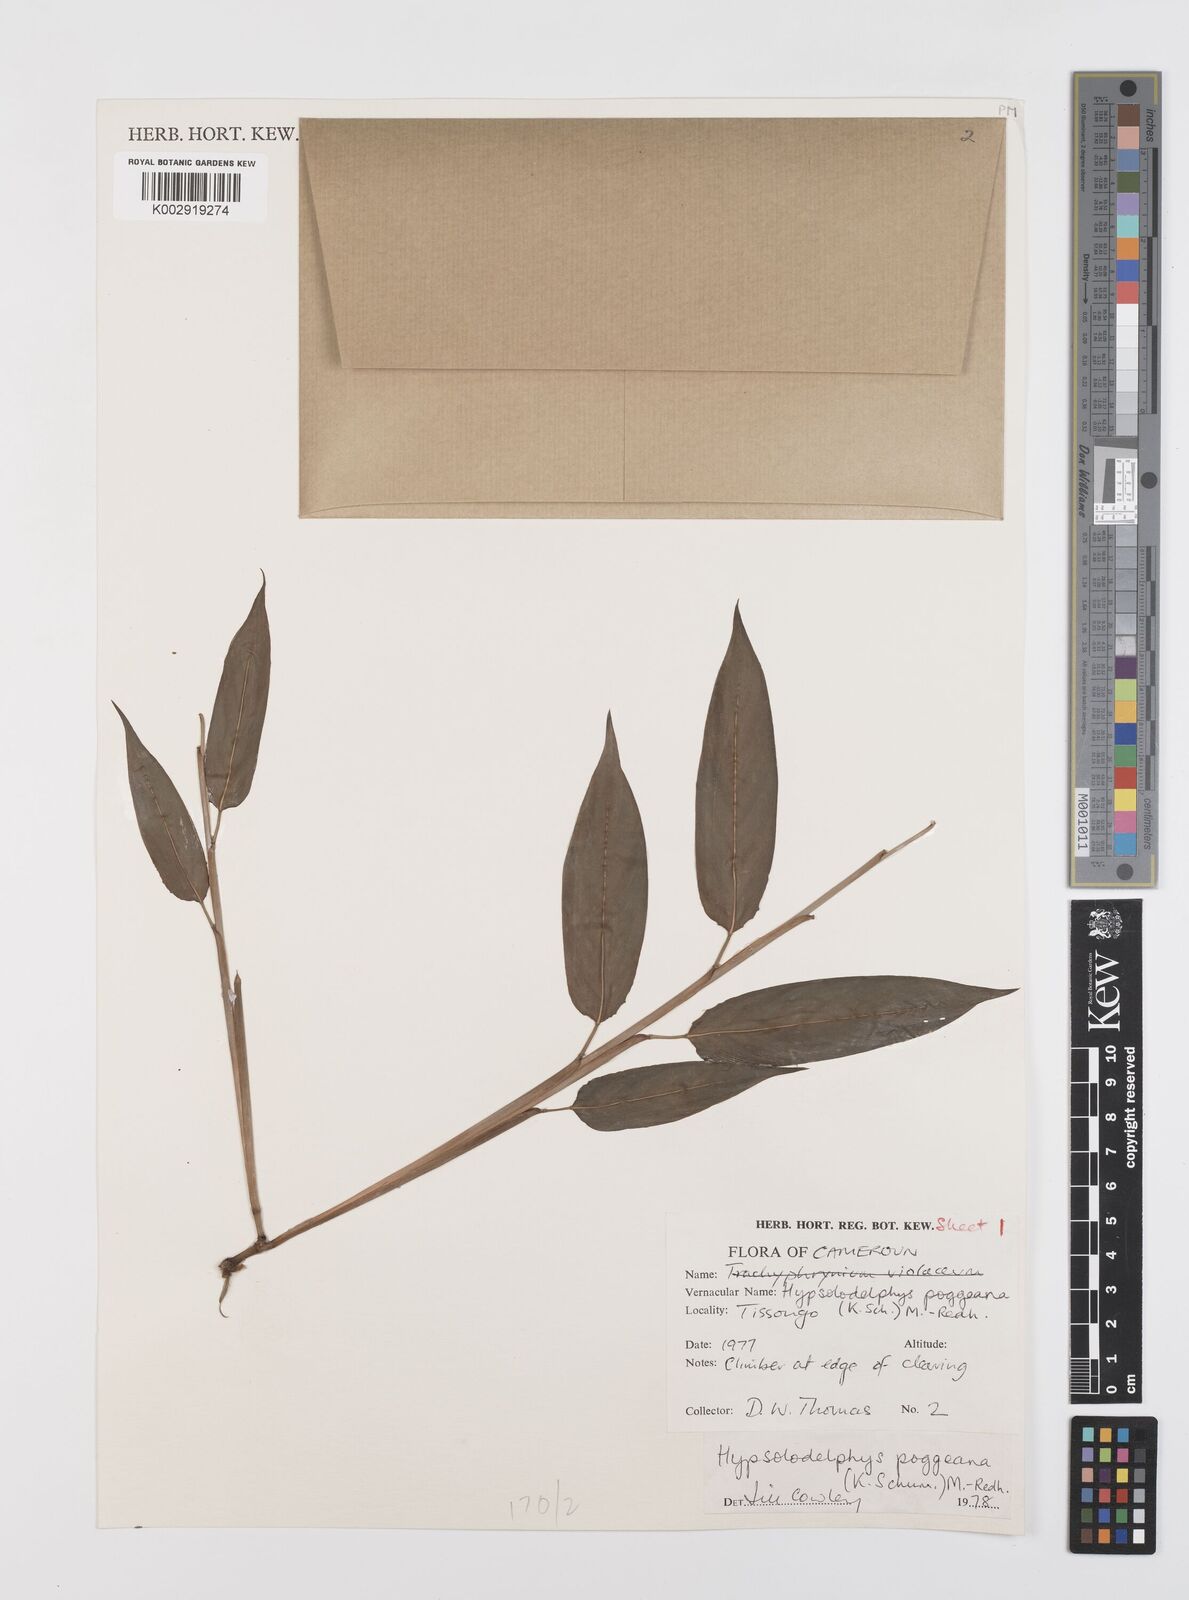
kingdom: Plantae
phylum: Tracheophyta
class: Liliopsida
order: Zingiberales
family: Marantaceae
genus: Hypselodelphys
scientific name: Hypselodelphys poggeana
